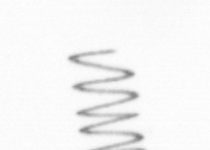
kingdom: Chromista
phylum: Ochrophyta
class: Bacillariophyceae
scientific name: Bacillariophyceae
